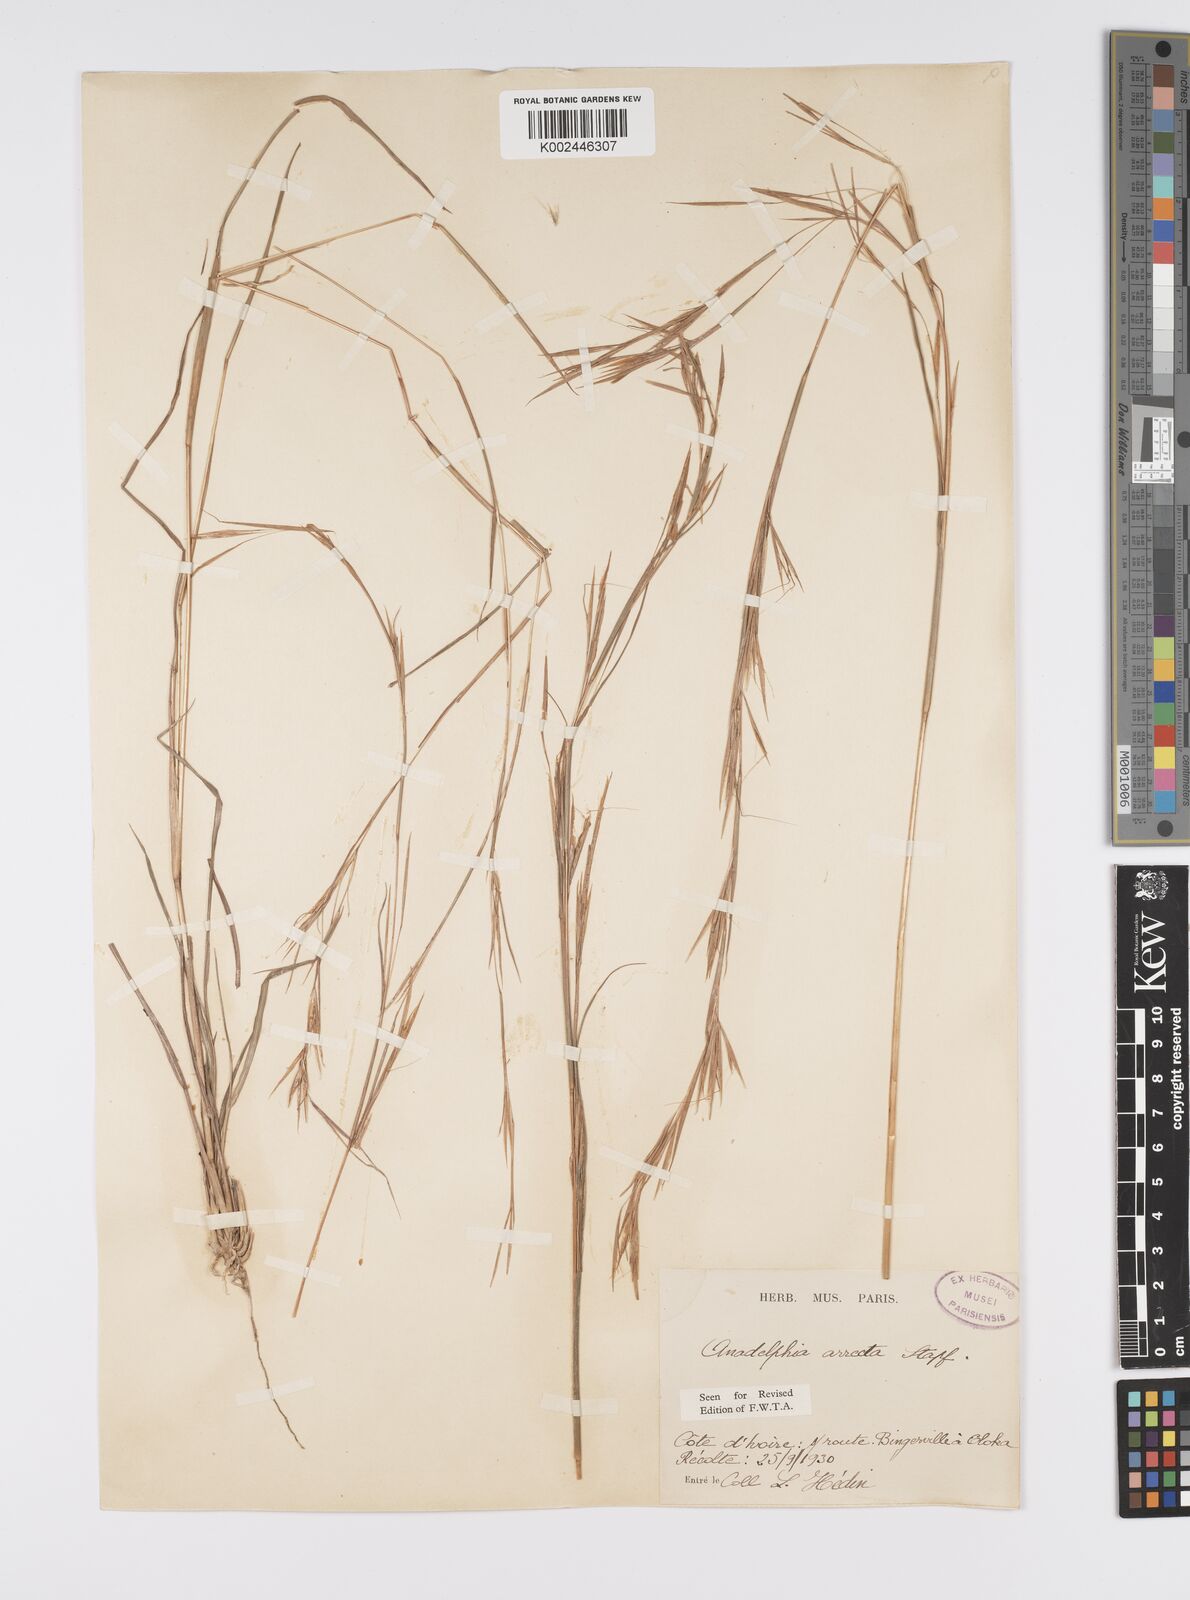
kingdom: Plantae
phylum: Tracheophyta
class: Liliopsida
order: Poales
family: Poaceae
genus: Anadelphia
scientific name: Anadelphia afzeliana
